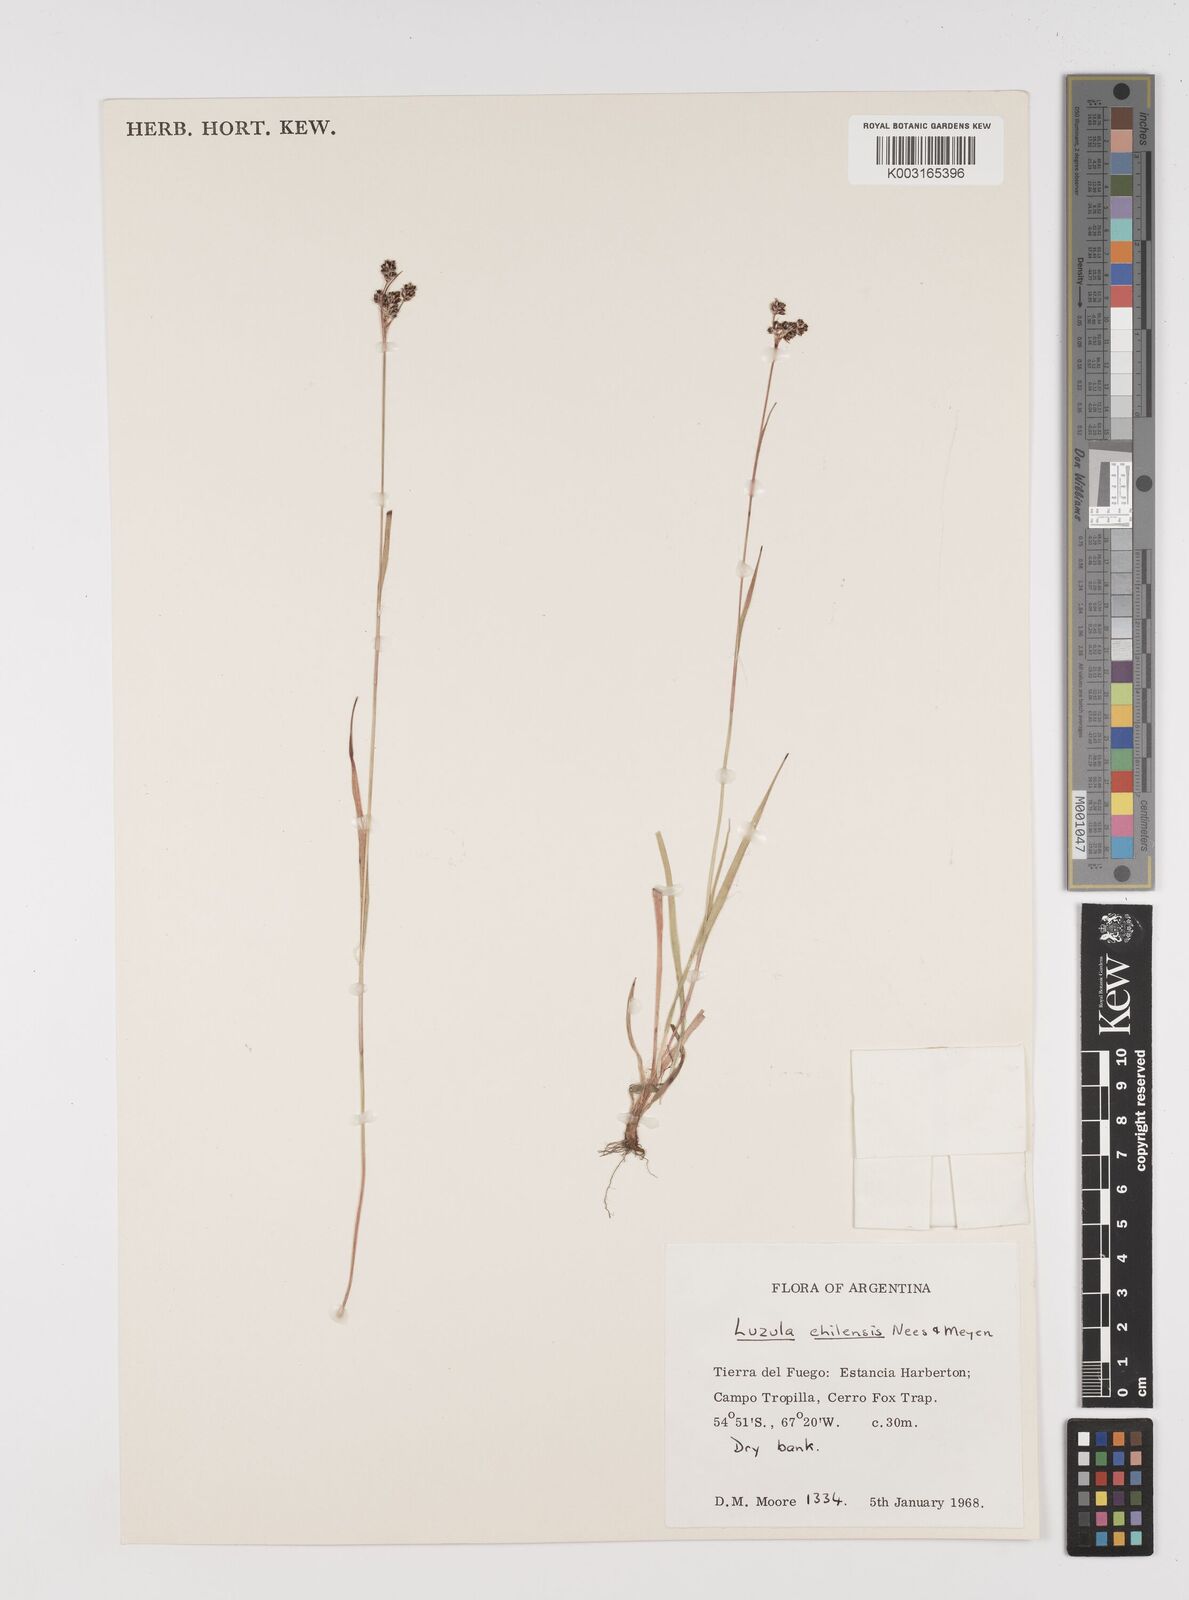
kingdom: Plantae
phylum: Tracheophyta
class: Liliopsida
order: Poales
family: Juncaceae
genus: Luzula
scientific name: Luzula chilensis
